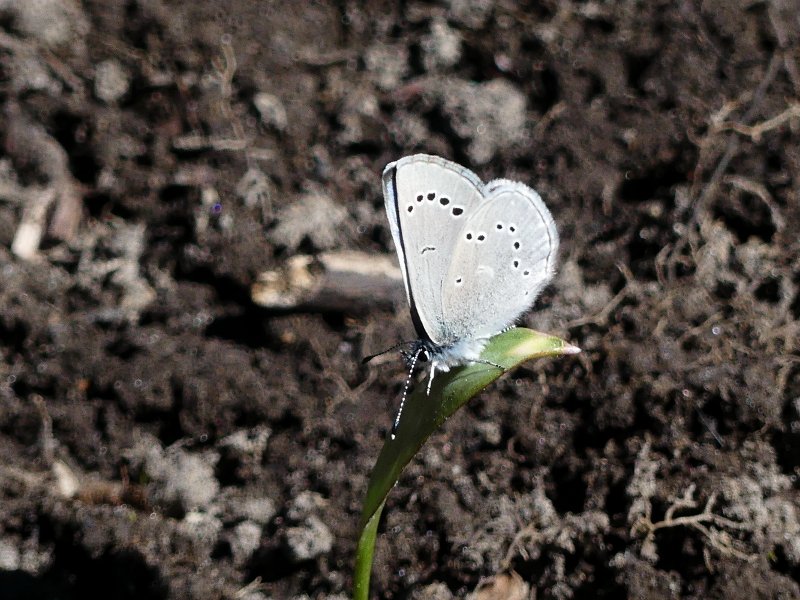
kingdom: Animalia
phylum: Arthropoda
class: Insecta
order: Lepidoptera
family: Lycaenidae
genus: Glaucopsyche
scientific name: Glaucopsyche lygdamus
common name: Silvery Blue
